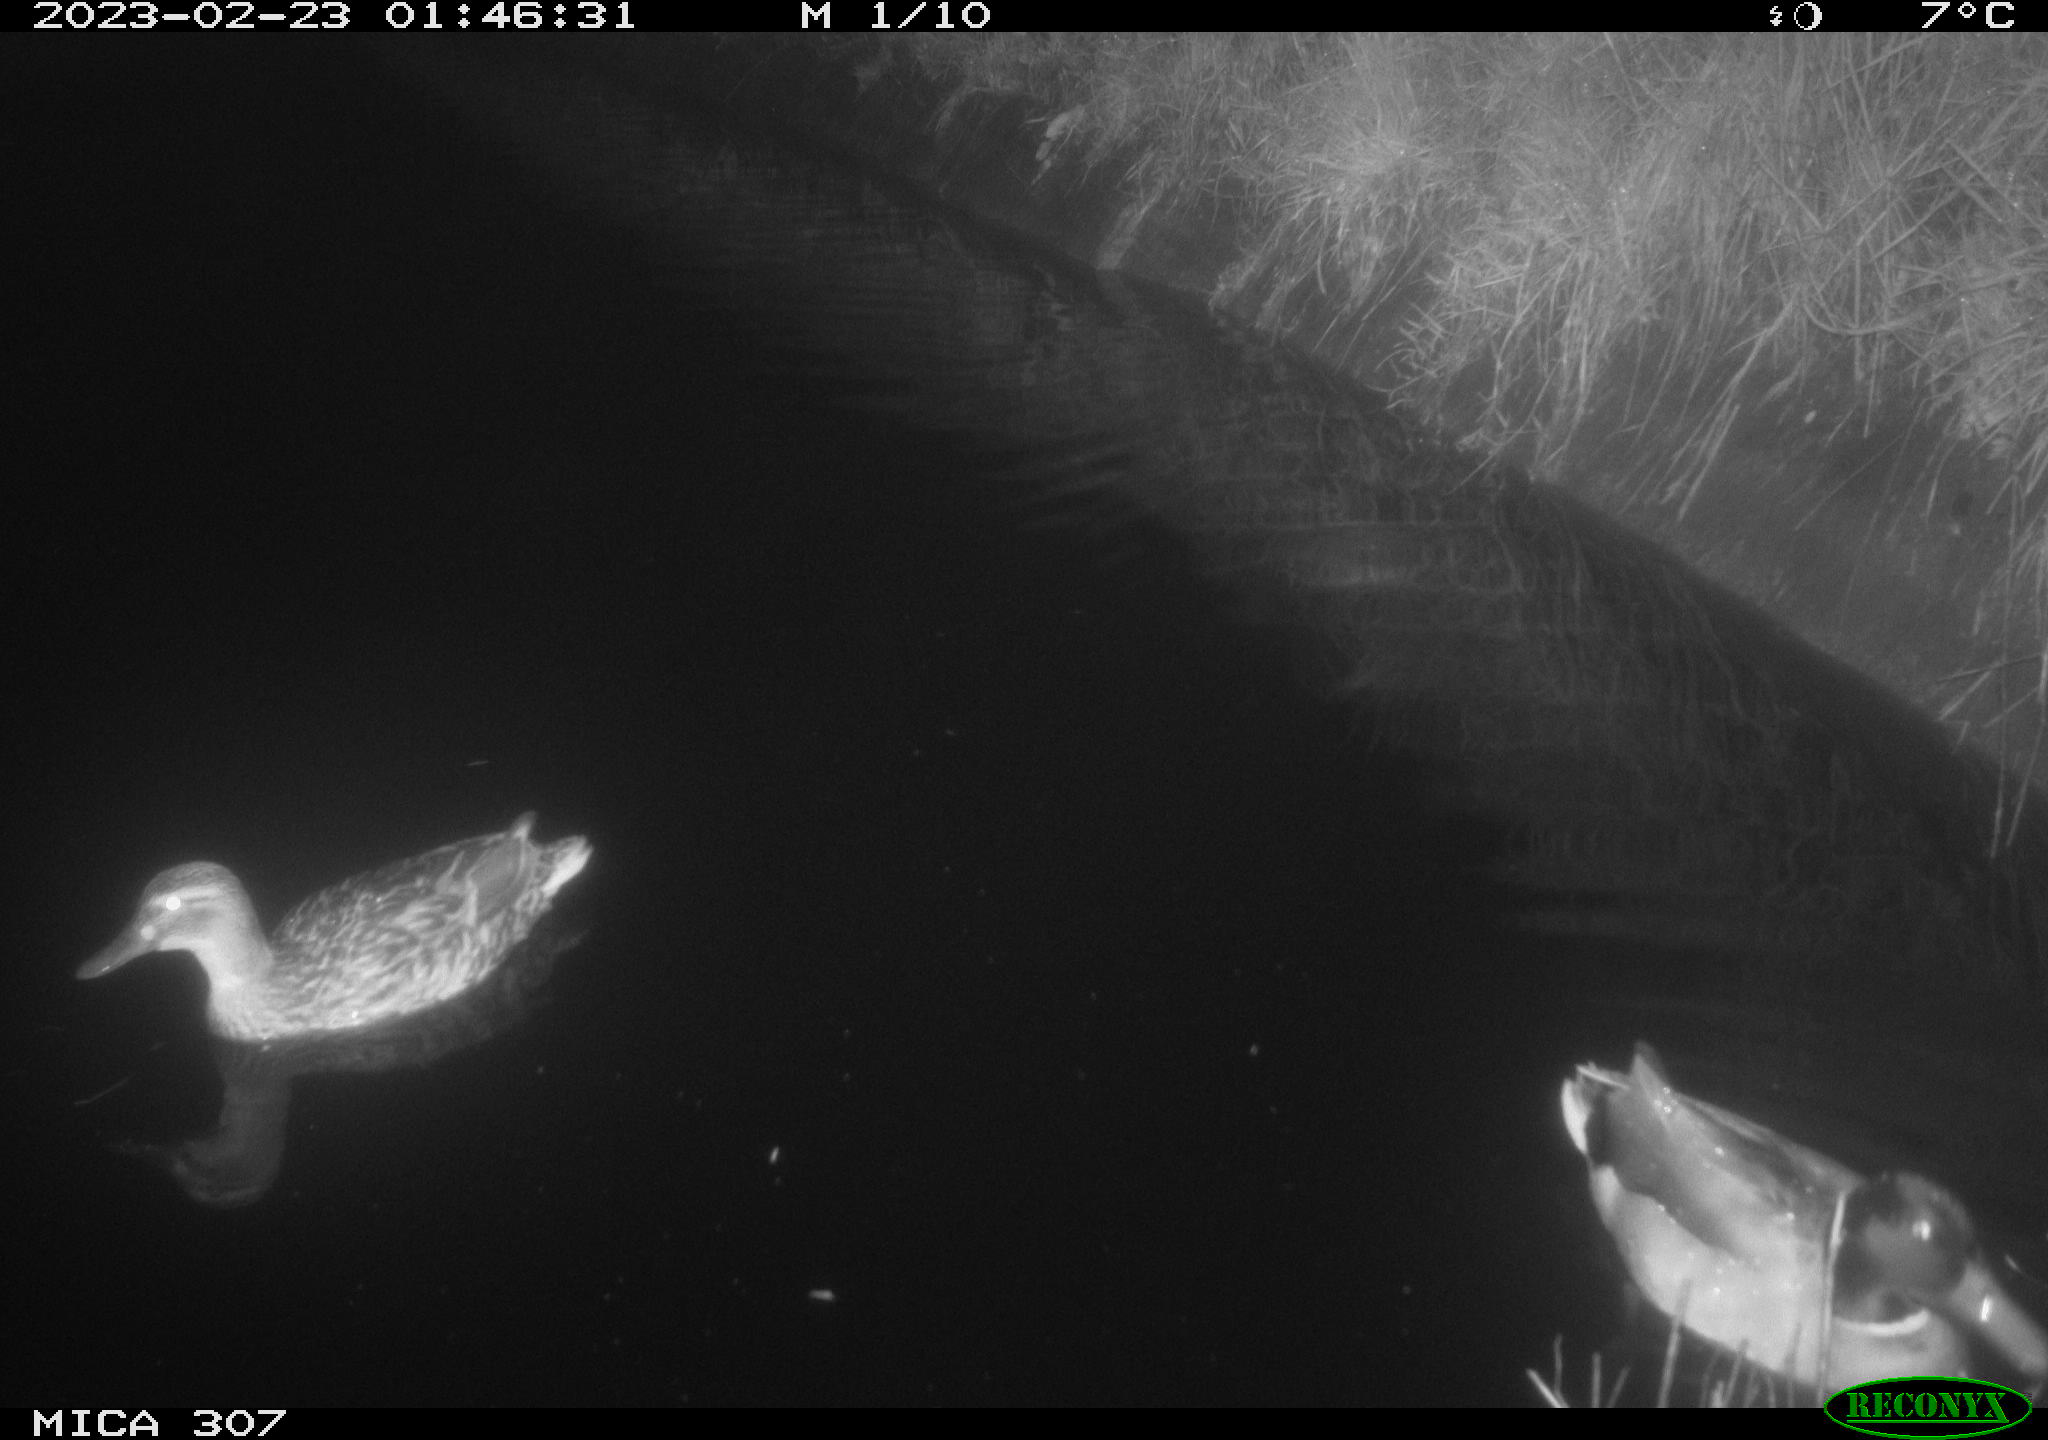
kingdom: Animalia
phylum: Chordata
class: Aves
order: Anseriformes
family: Anatidae
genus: Anas
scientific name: Anas
